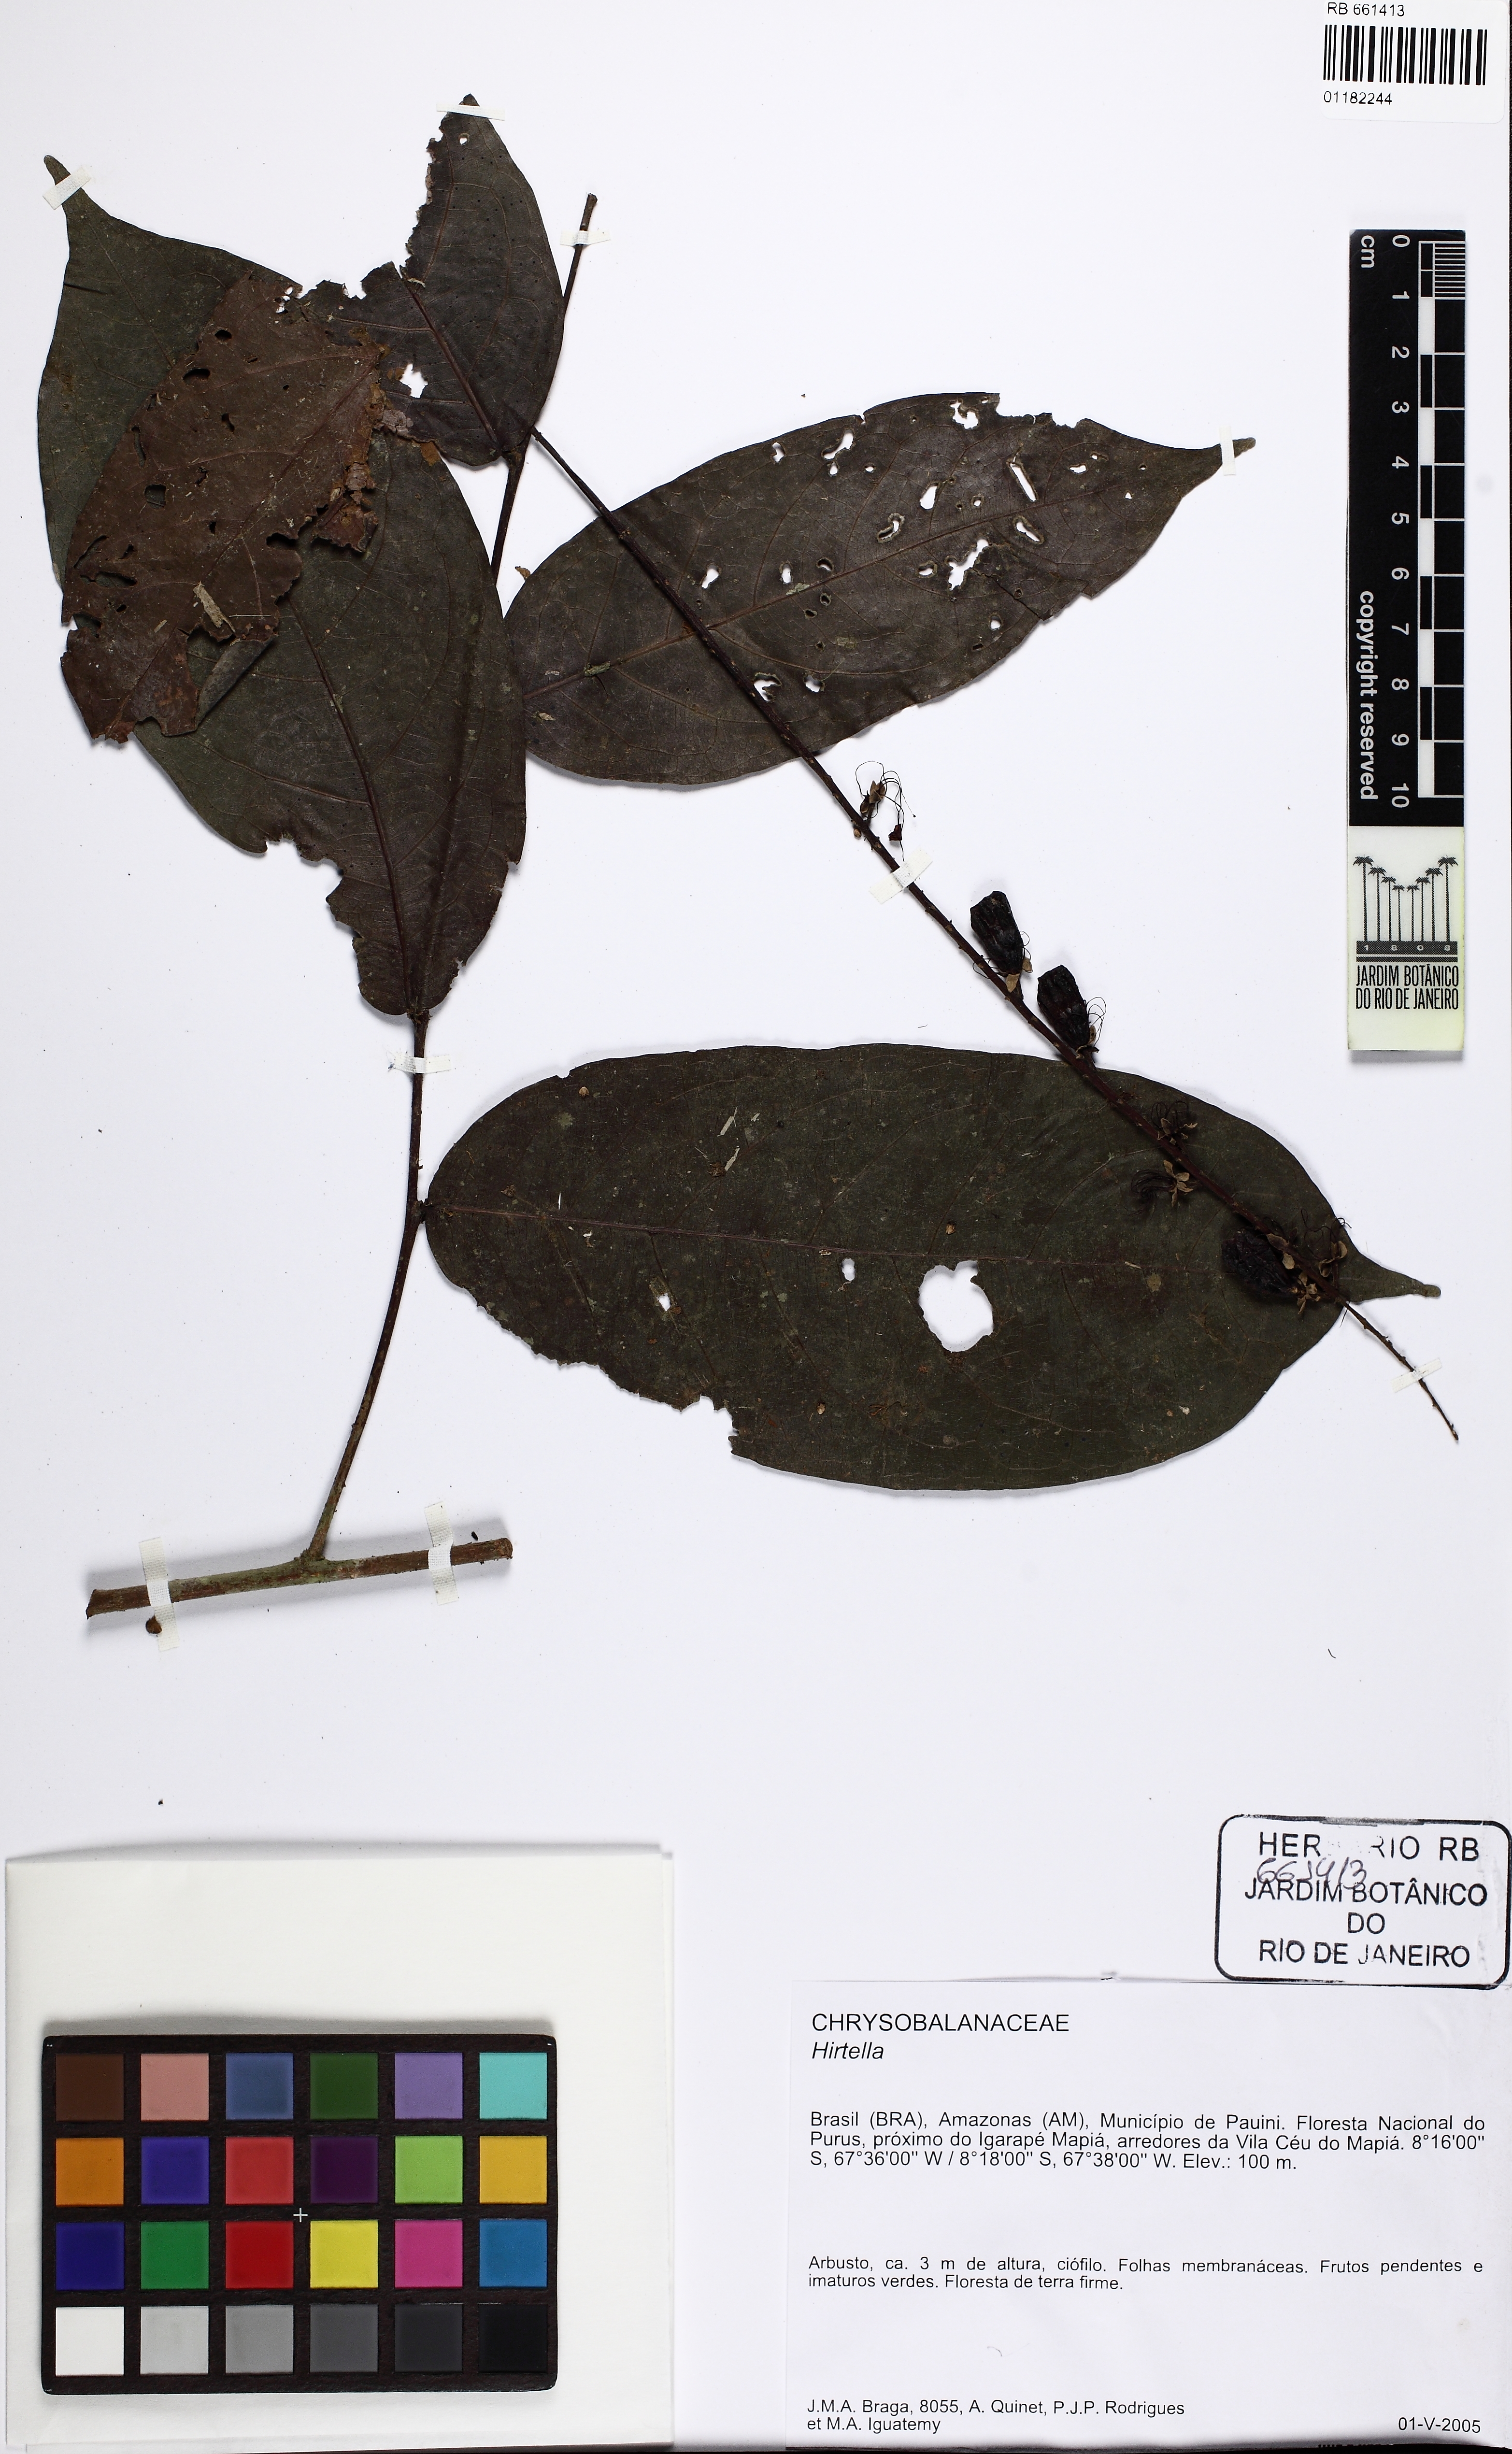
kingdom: Plantae
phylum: Tracheophyta
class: Magnoliopsida
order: Malpighiales
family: Chrysobalanaceae
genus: Hirtella
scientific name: Hirtella
